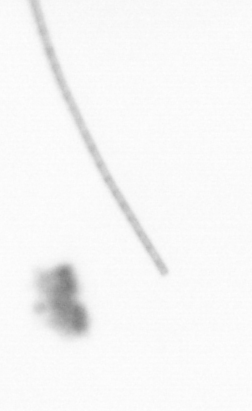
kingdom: Chromista
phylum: Ochrophyta
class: Bacillariophyceae
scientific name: Bacillariophyceae
